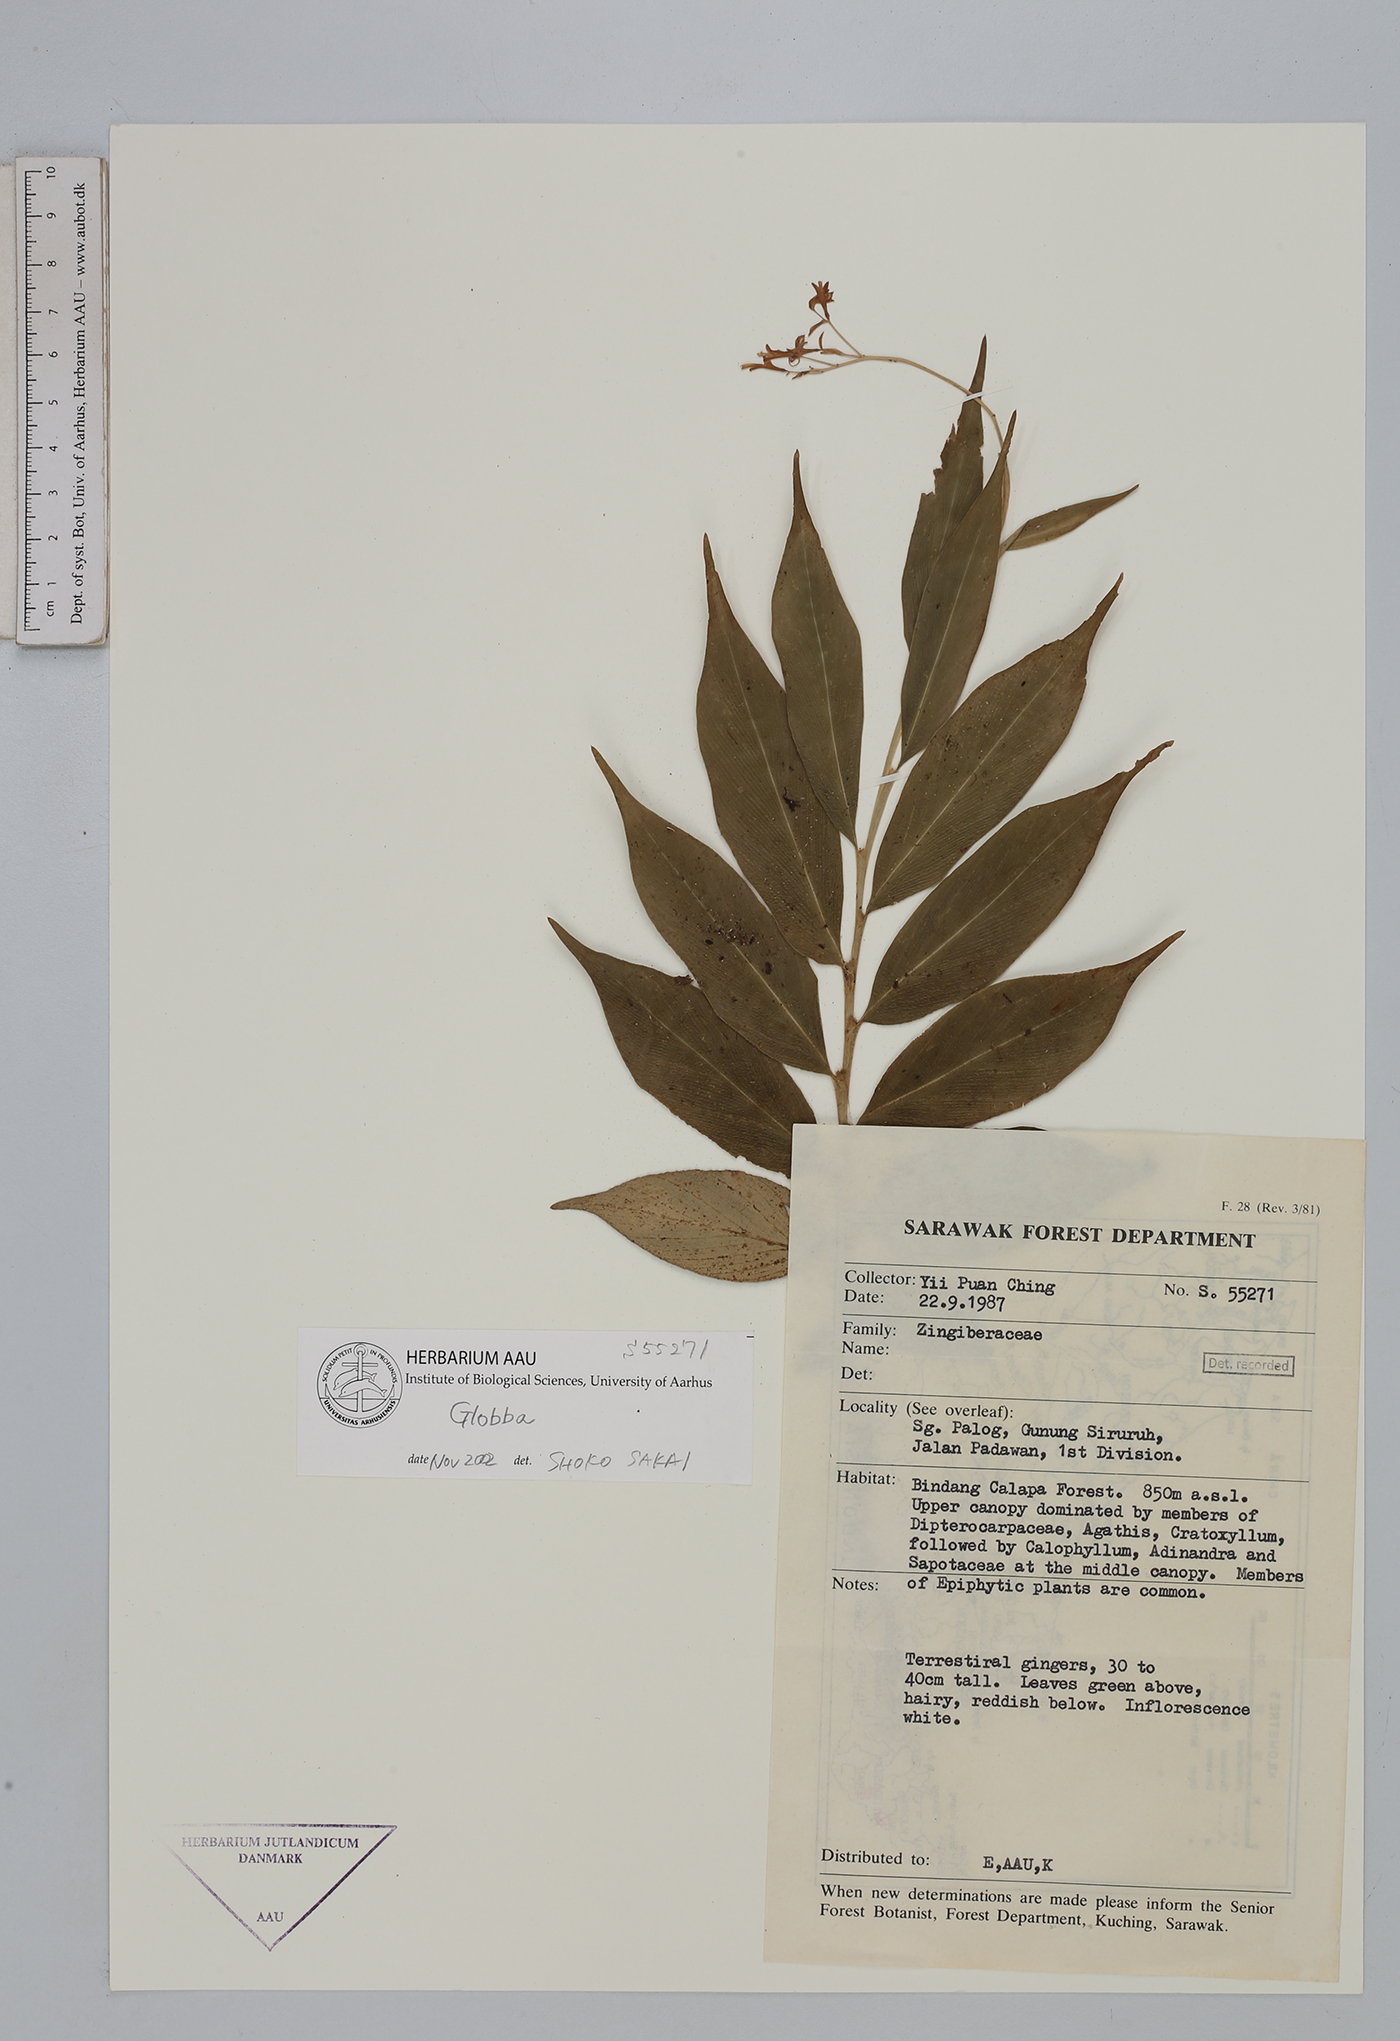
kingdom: Plantae
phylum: Tracheophyta
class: Liliopsida
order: Zingiberales
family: Zingiberaceae
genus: Globba
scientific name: Globba pumila
